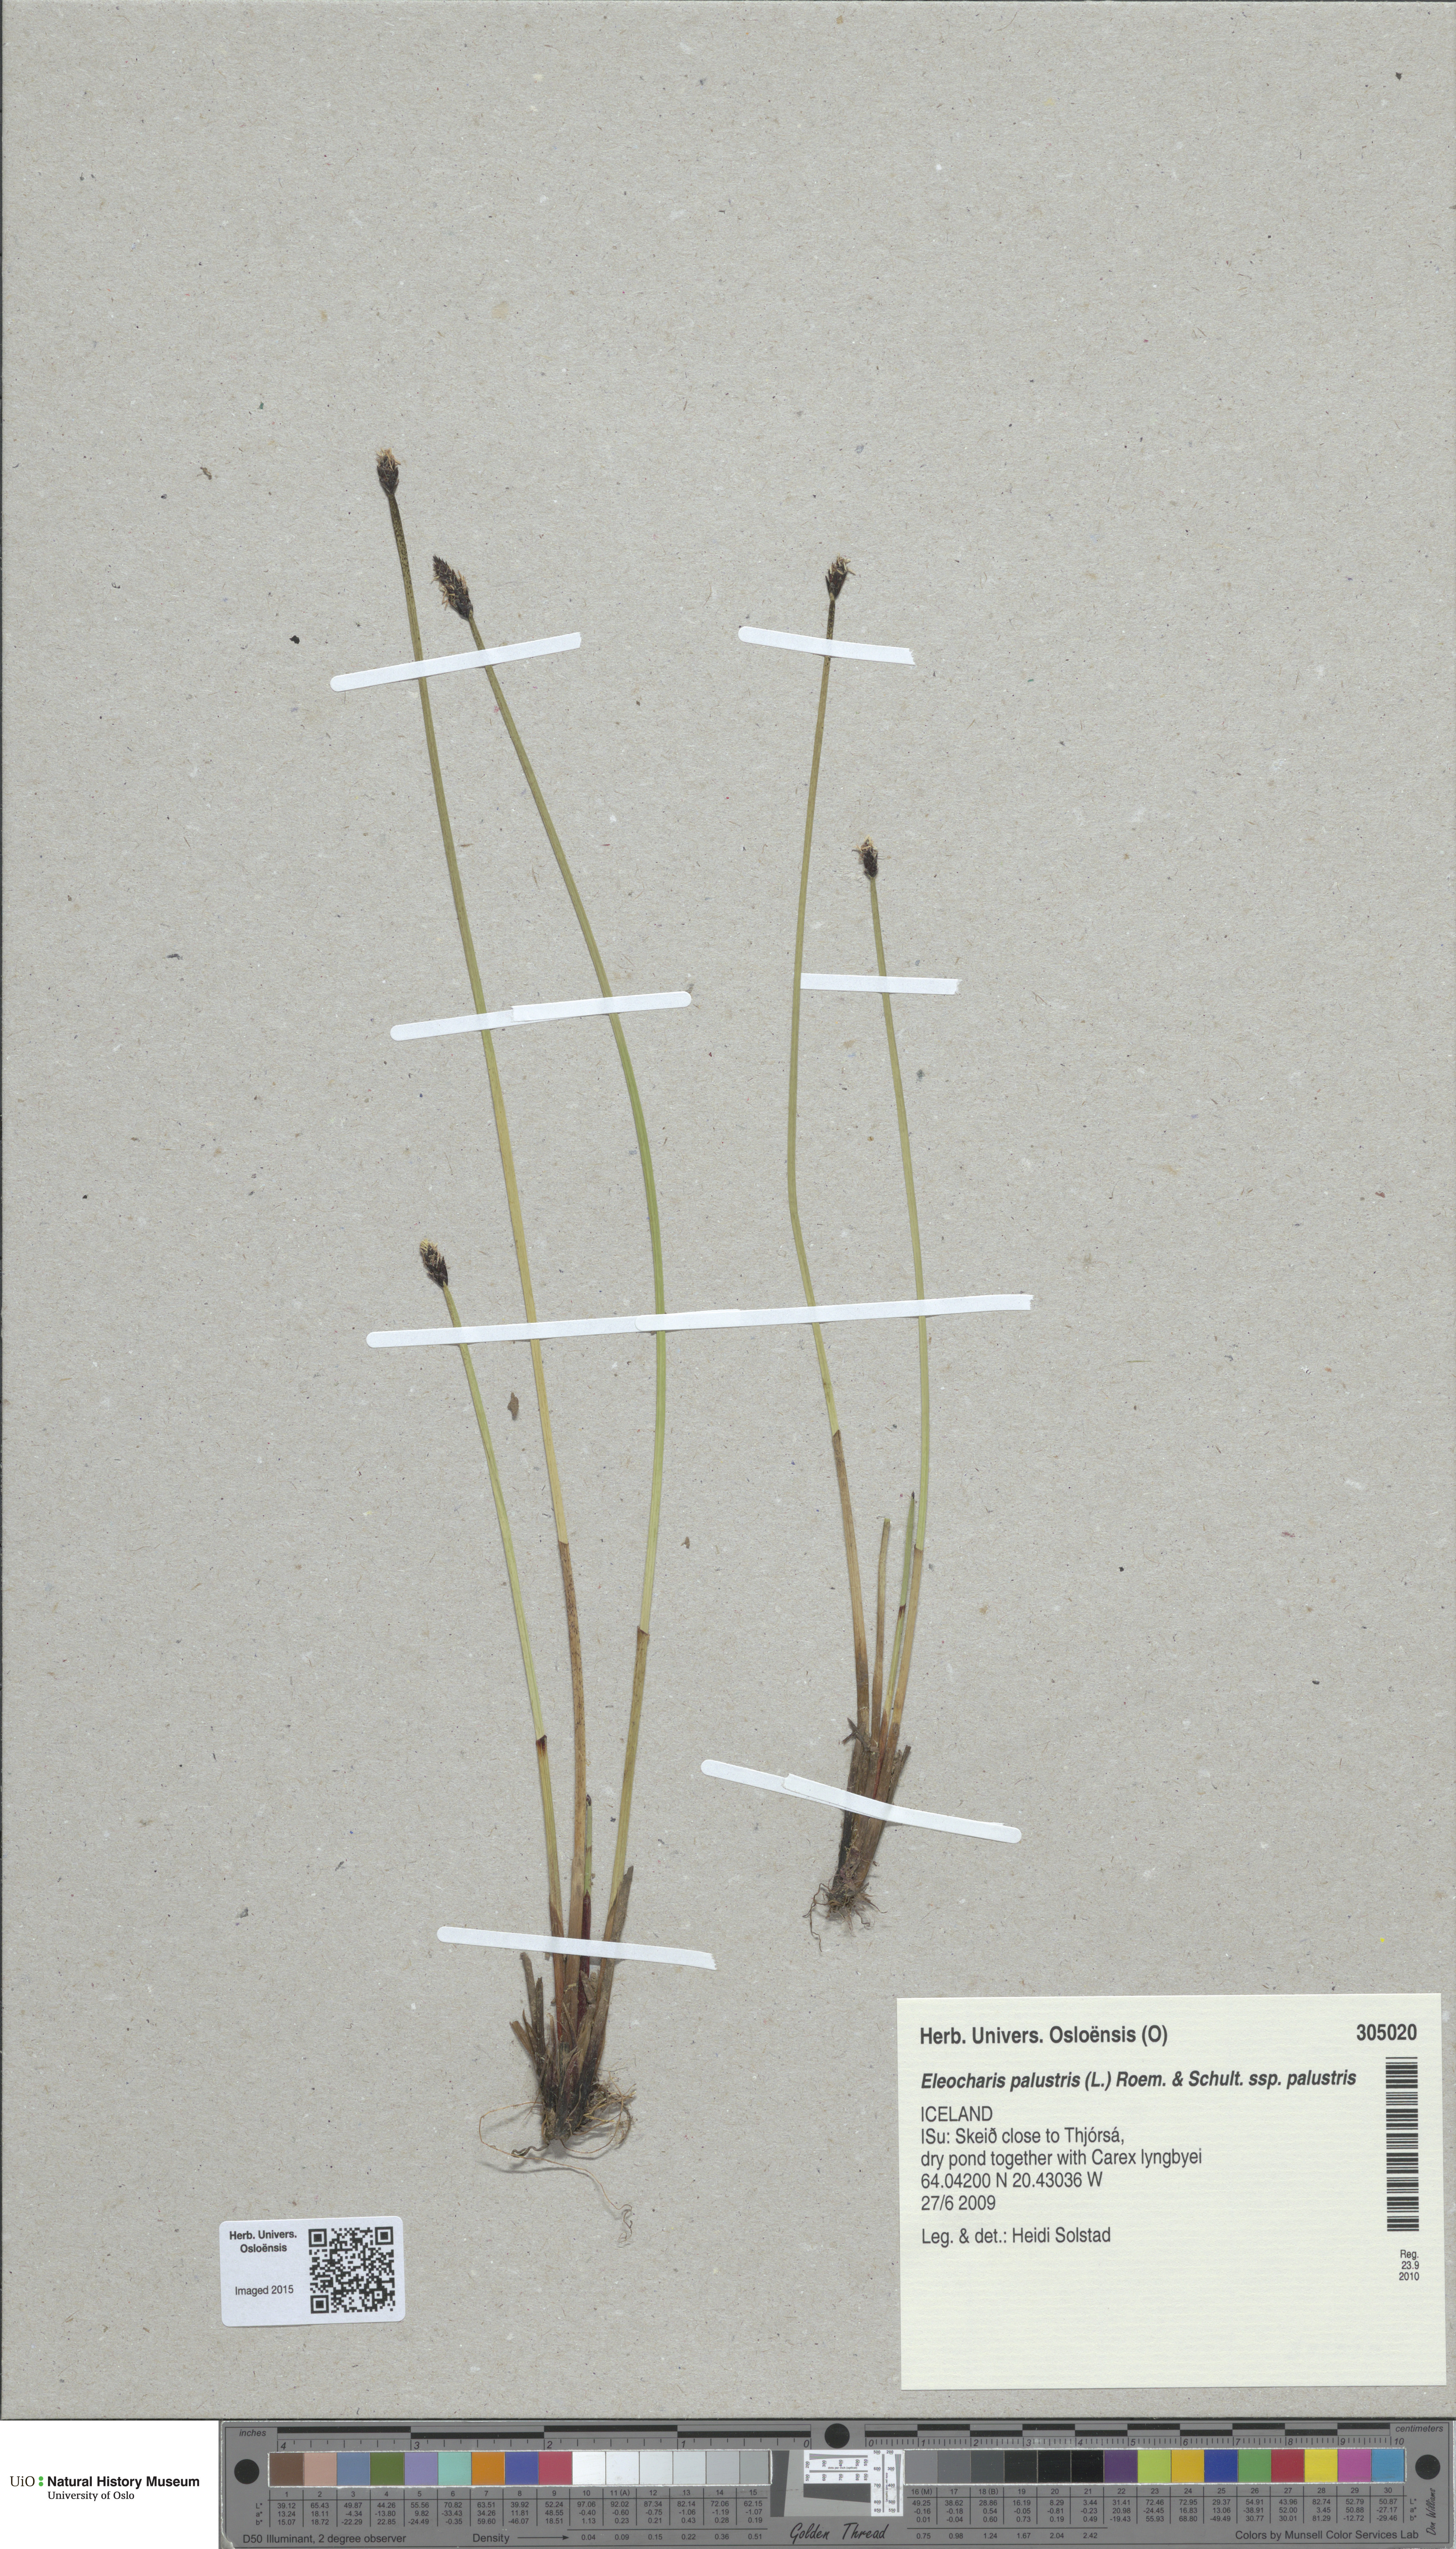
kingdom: Plantae
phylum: Tracheophyta
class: Liliopsida
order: Poales
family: Cyperaceae
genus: Eleocharis
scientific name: Eleocharis palustris
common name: Common spike-rush
